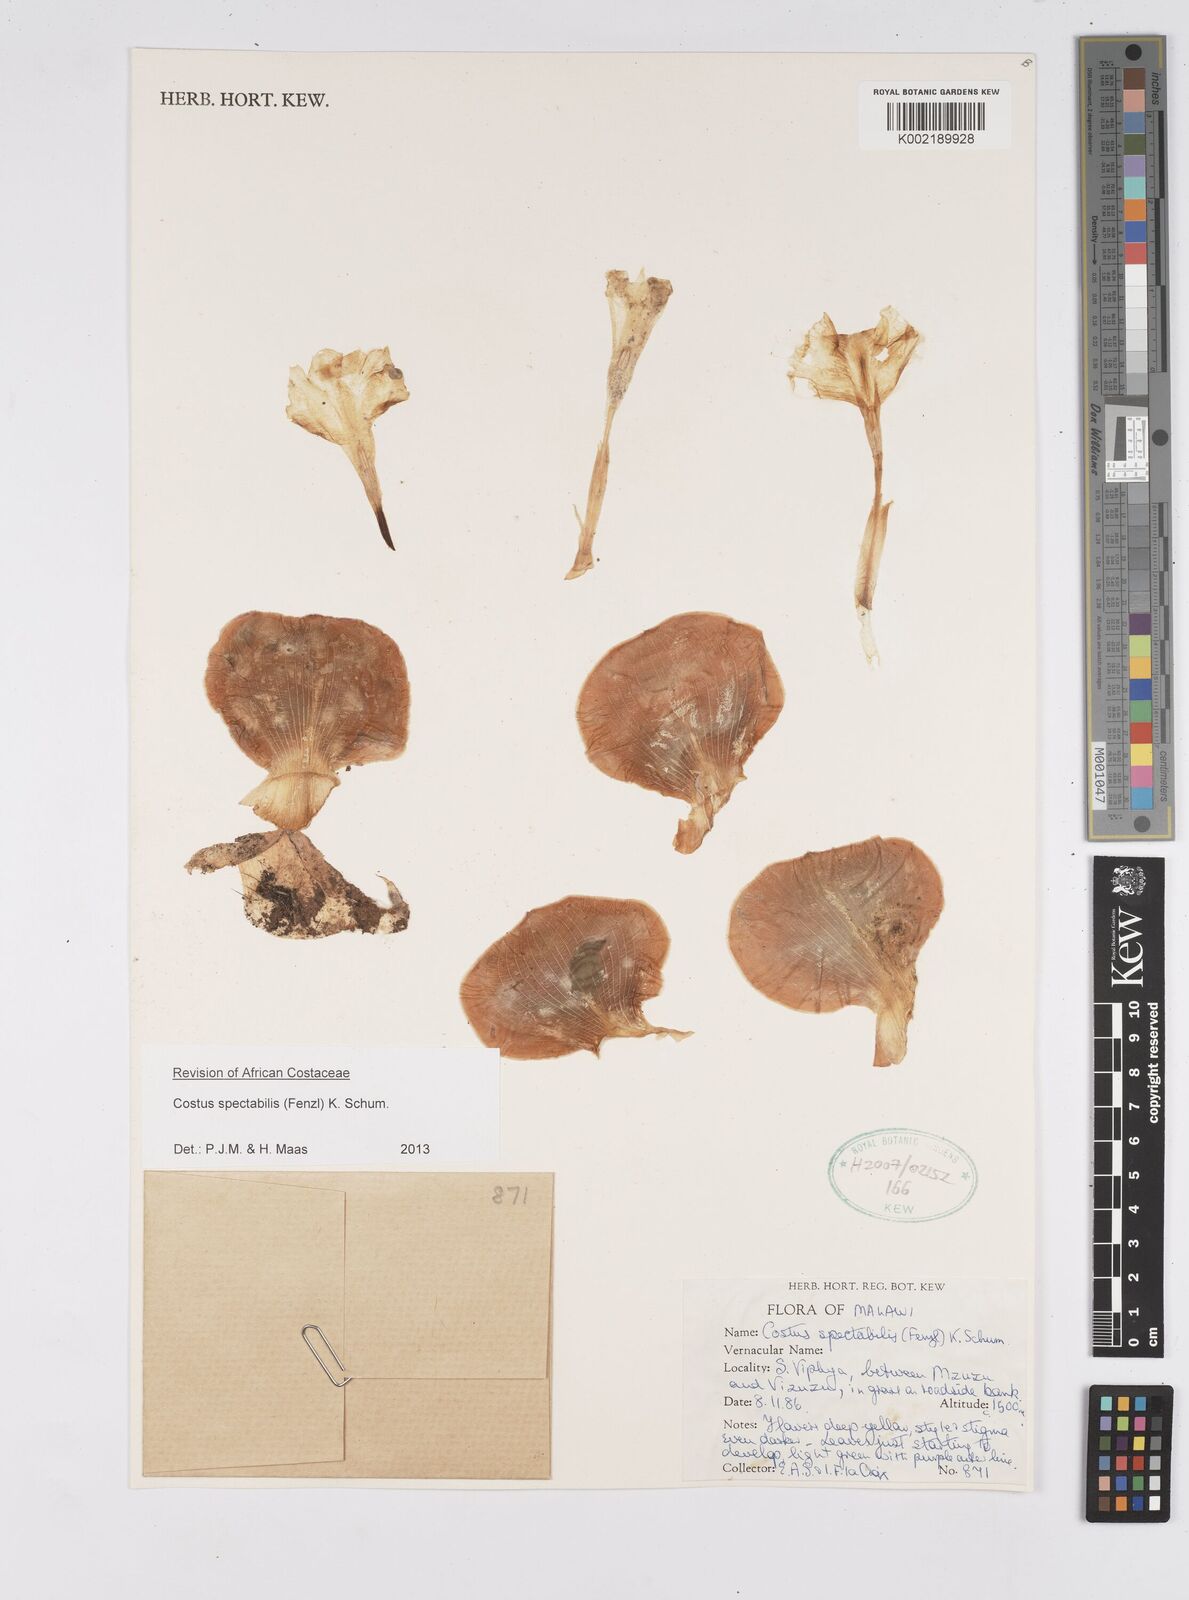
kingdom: Plantae
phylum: Tracheophyta
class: Liliopsida
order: Zingiberales
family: Costaceae
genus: Costus
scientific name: Costus spectabilis
